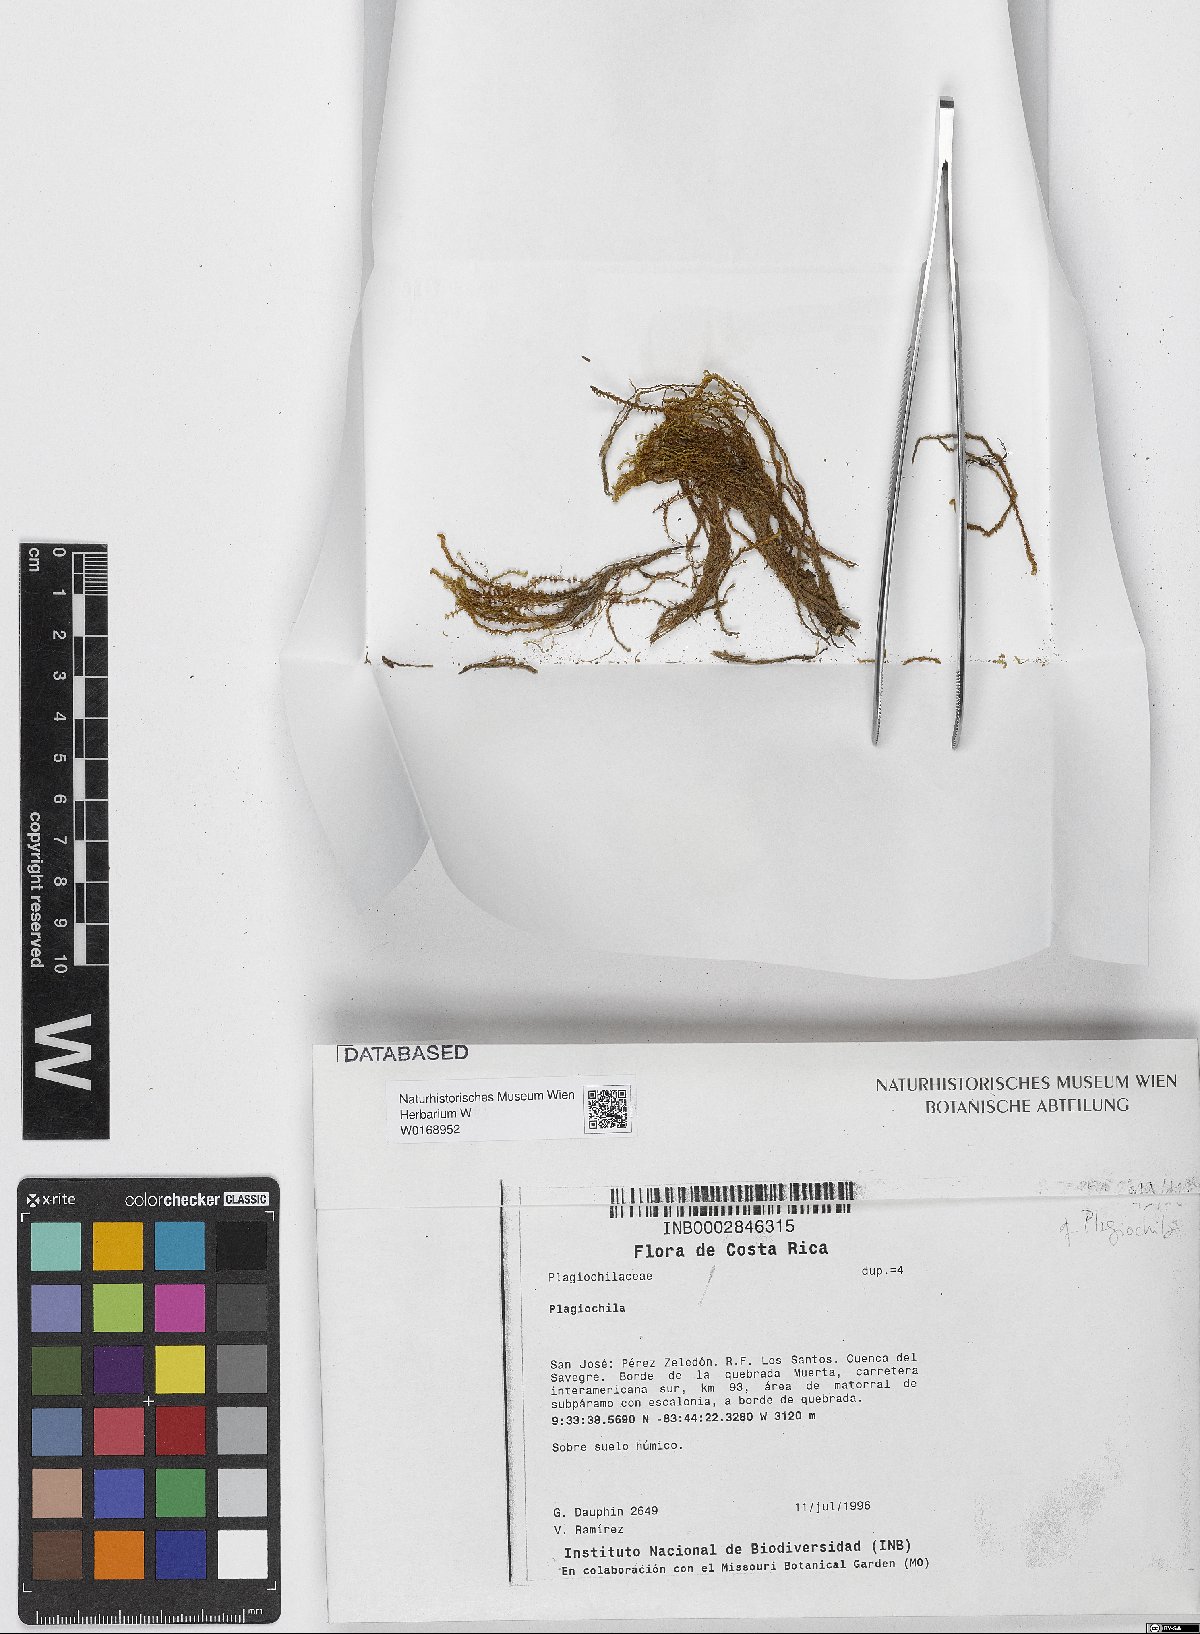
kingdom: Plantae
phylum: Marchantiophyta
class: Jungermanniopsida
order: Jungermanniales
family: Plagiochilaceae
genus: Plagiochila
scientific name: Plagiochila
